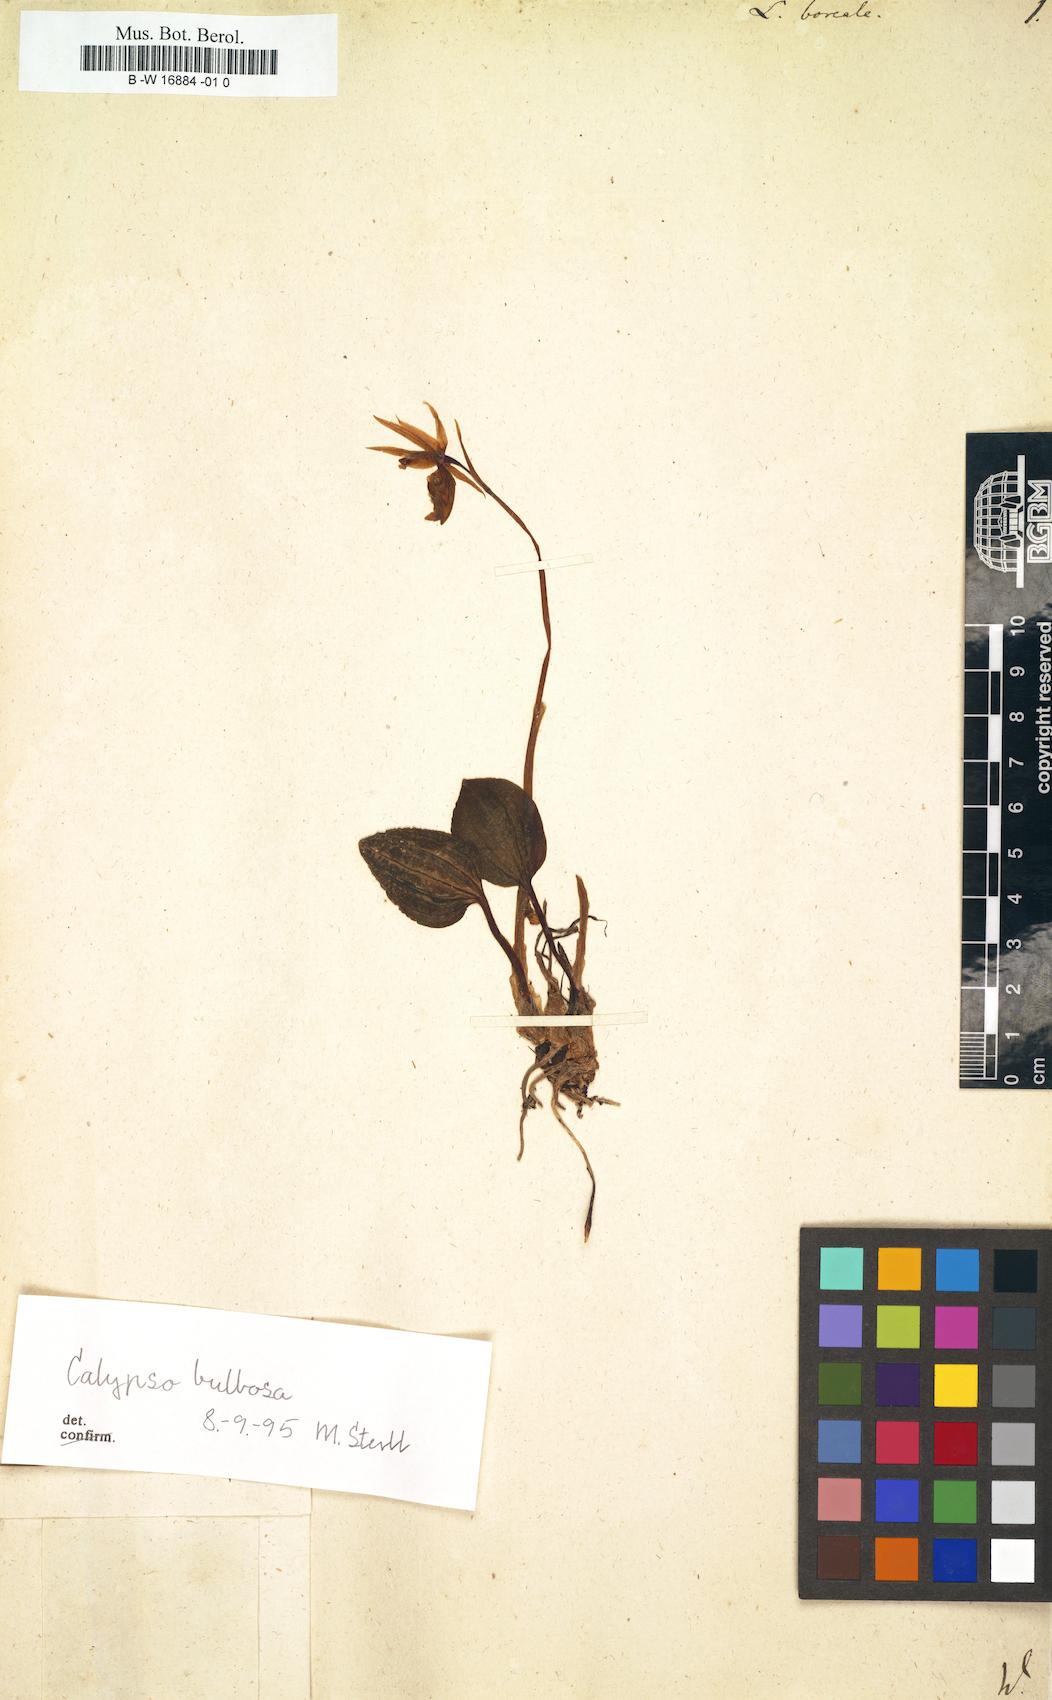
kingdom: Plantae
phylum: Tracheophyta
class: Liliopsida
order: Asparagales
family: Orchidaceae
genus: Calypso
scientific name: Calypso bulbosa
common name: Calypso
